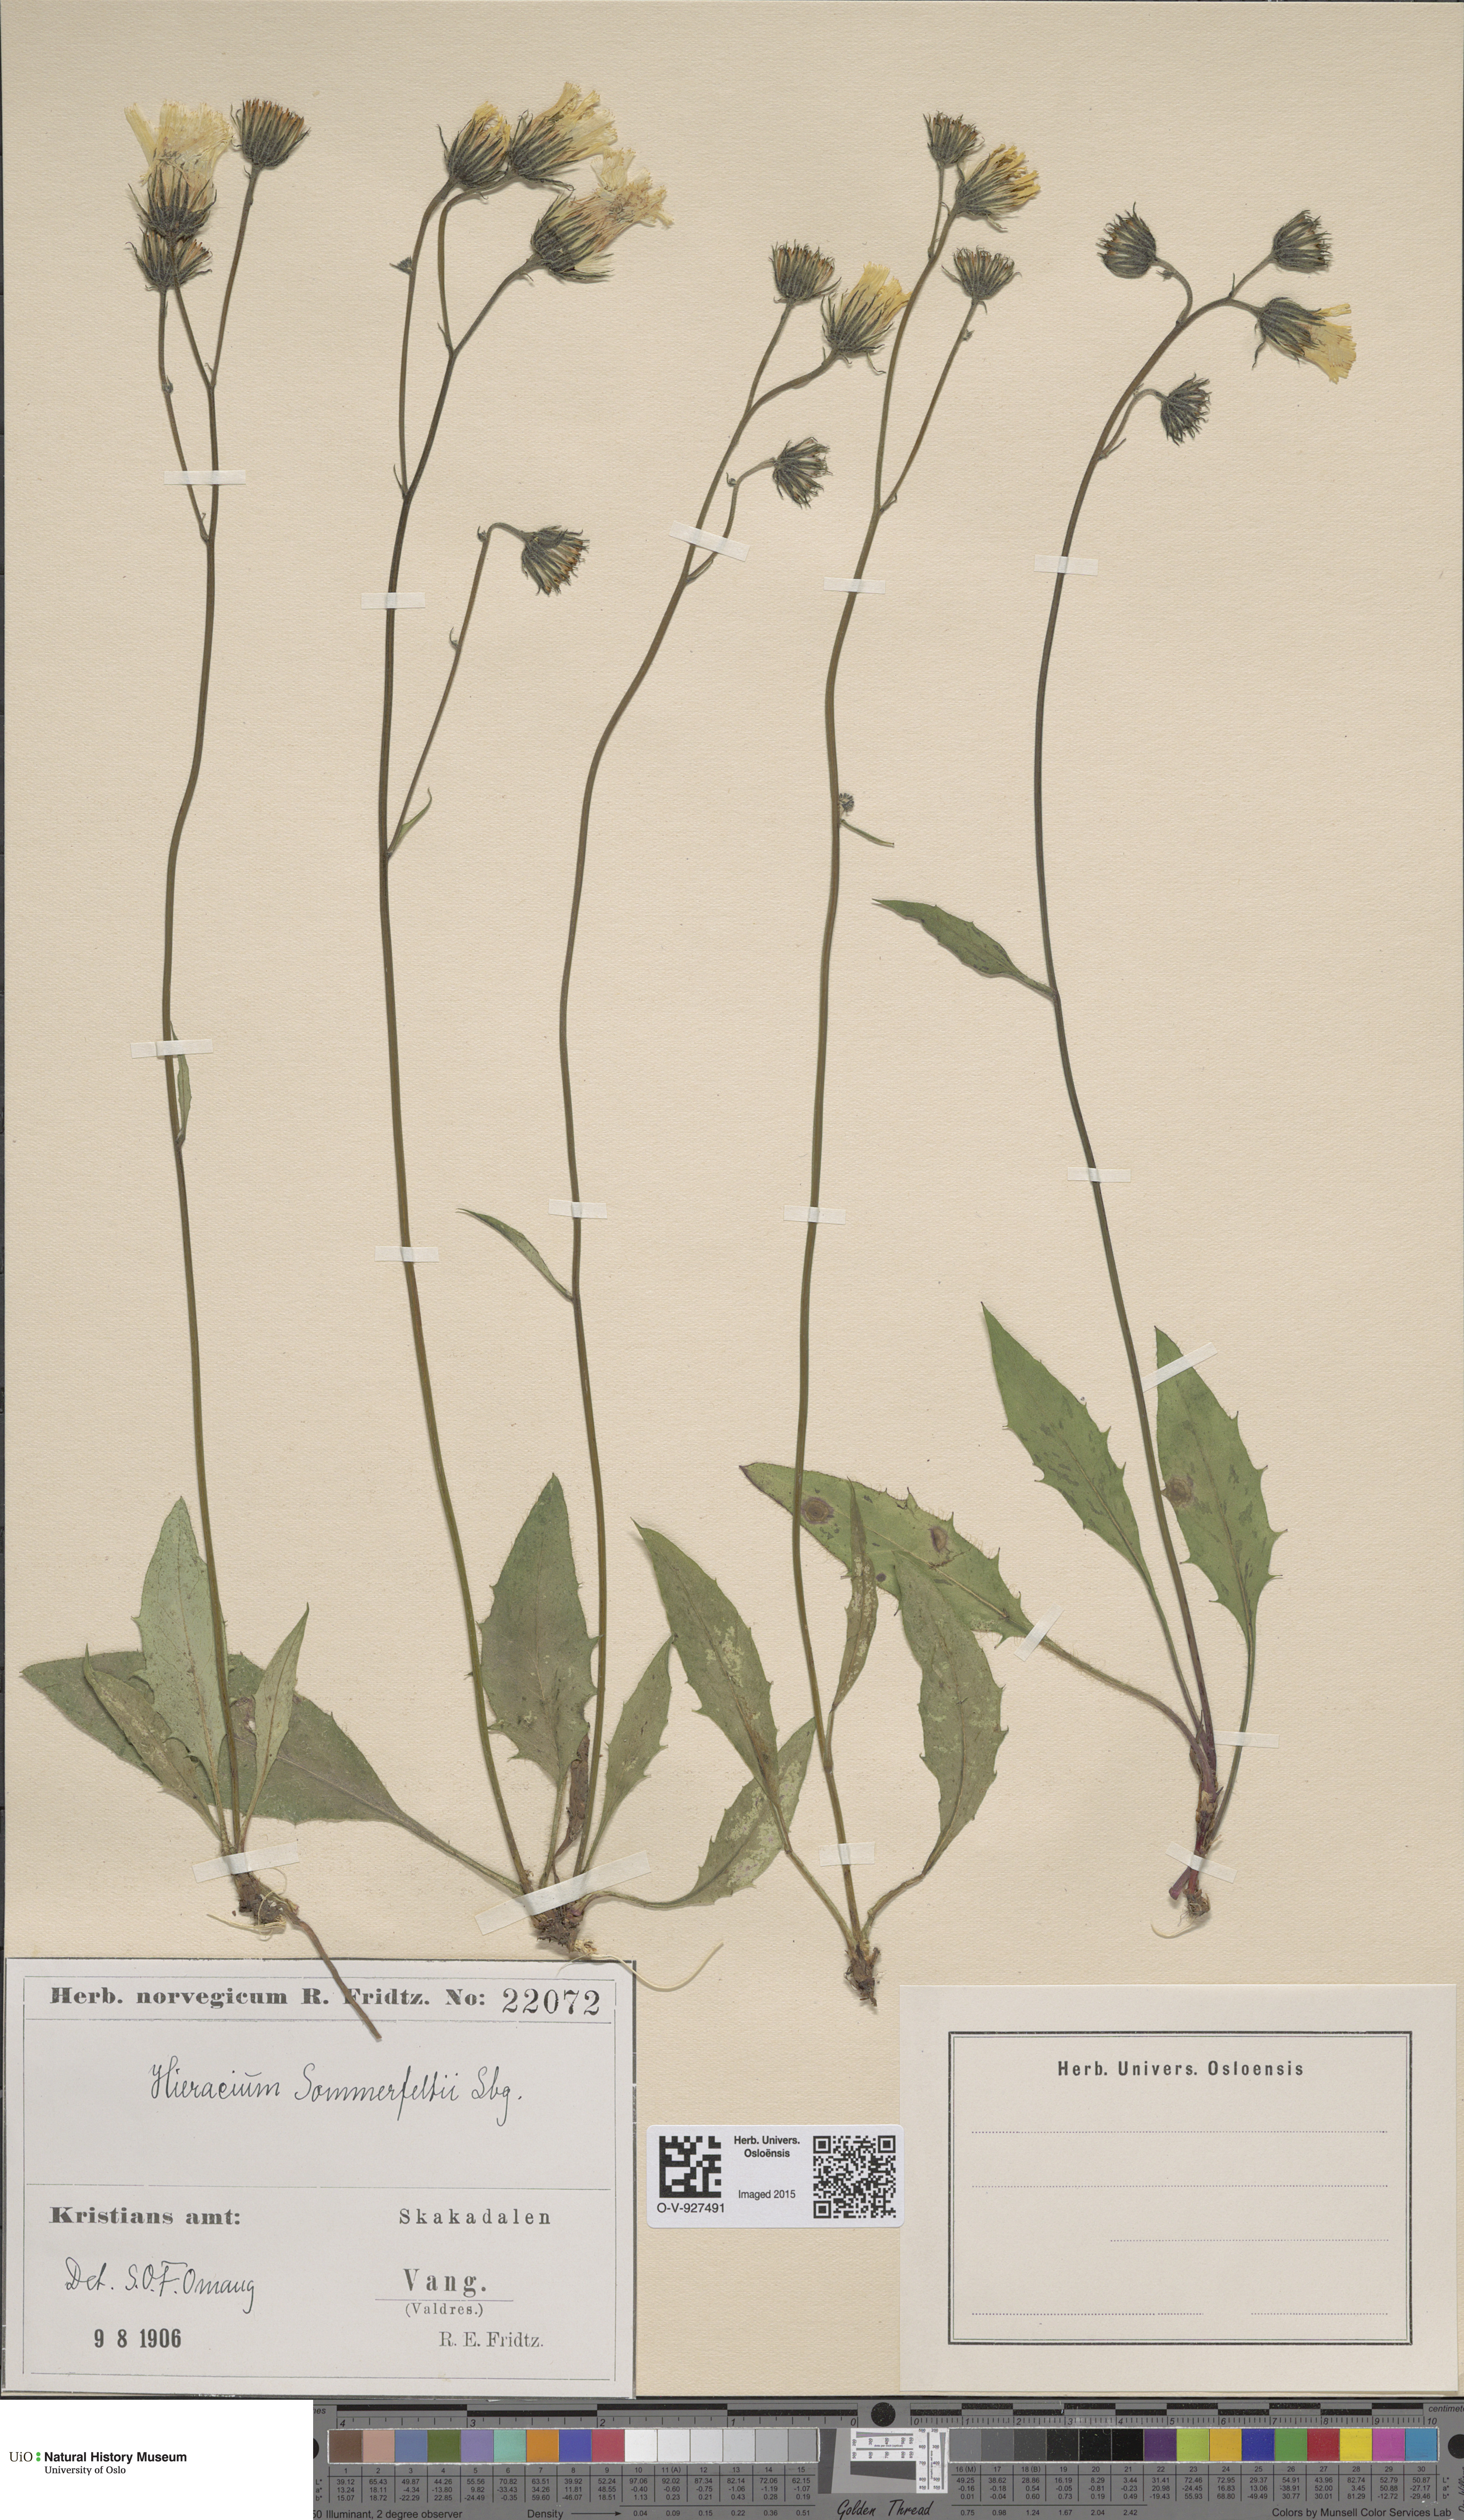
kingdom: Plantae
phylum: Tracheophyta
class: Magnoliopsida
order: Asterales
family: Asteraceae
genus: Hieracium
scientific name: Hieracium sommerfeltii
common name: Sommerfelt's hawkweed
